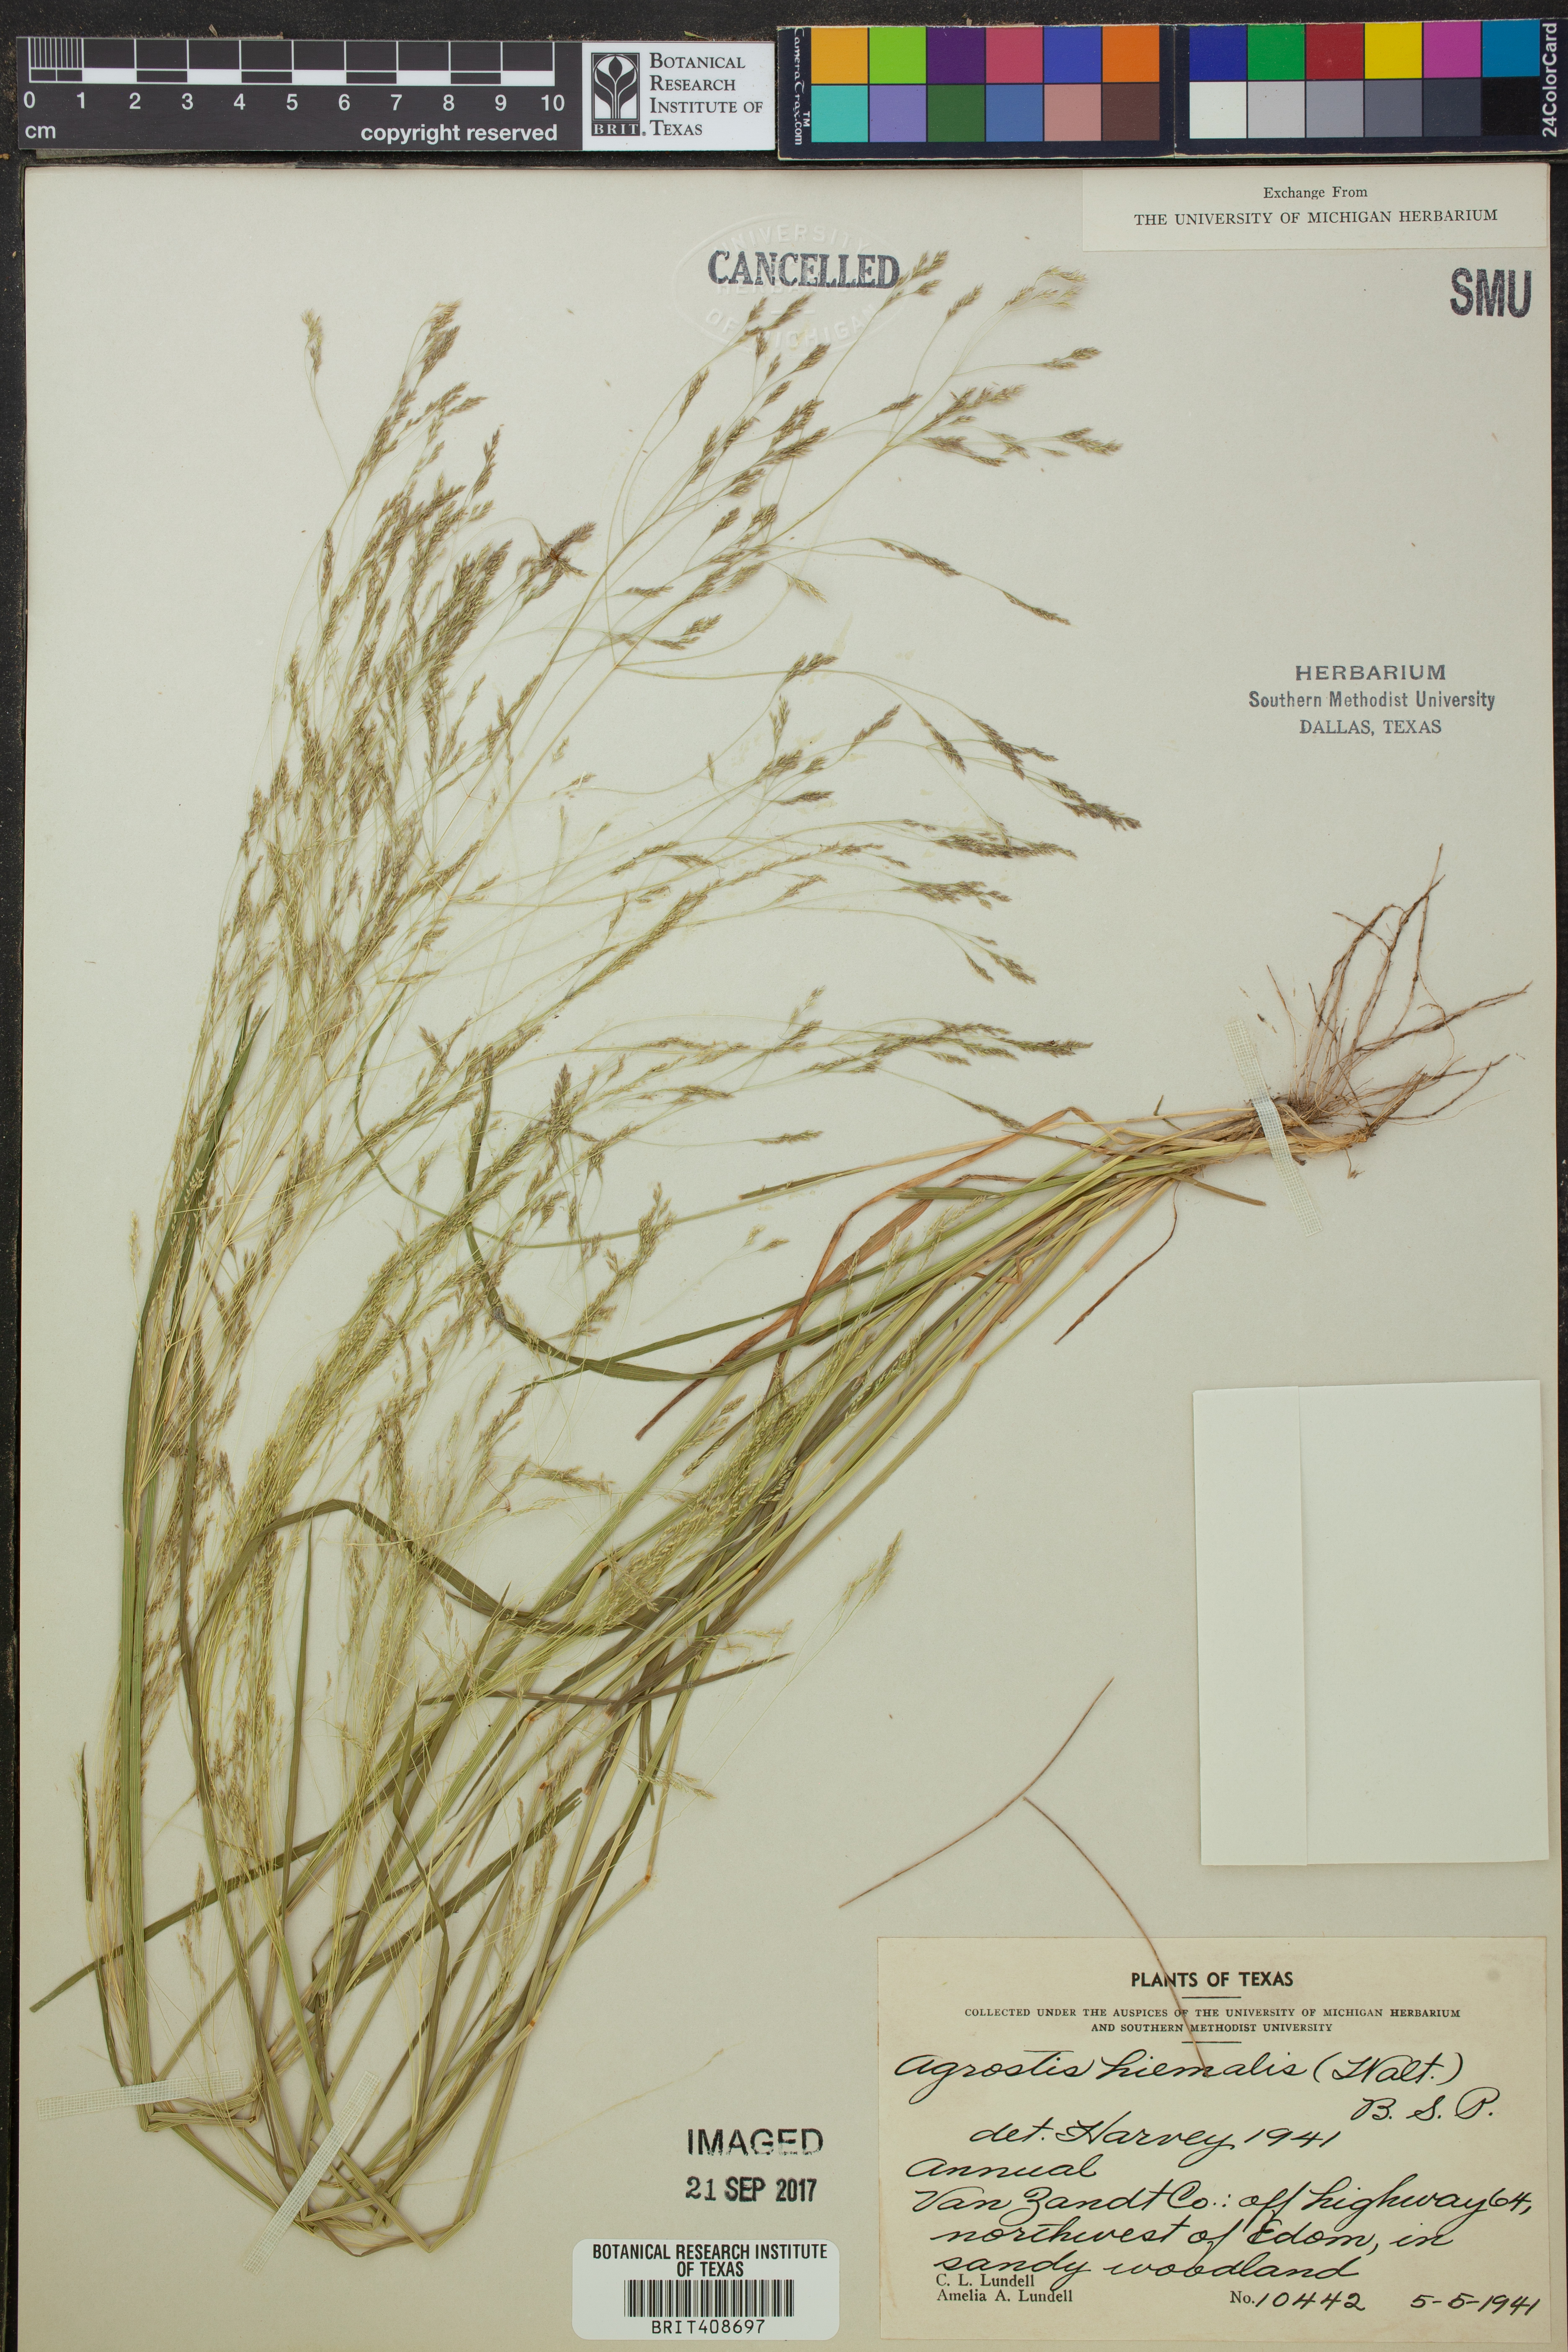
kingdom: Plantae
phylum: Tracheophyta
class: Liliopsida
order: Poales
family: Poaceae
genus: Agrostis
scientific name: Agrostis hyemalis
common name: Small bent
